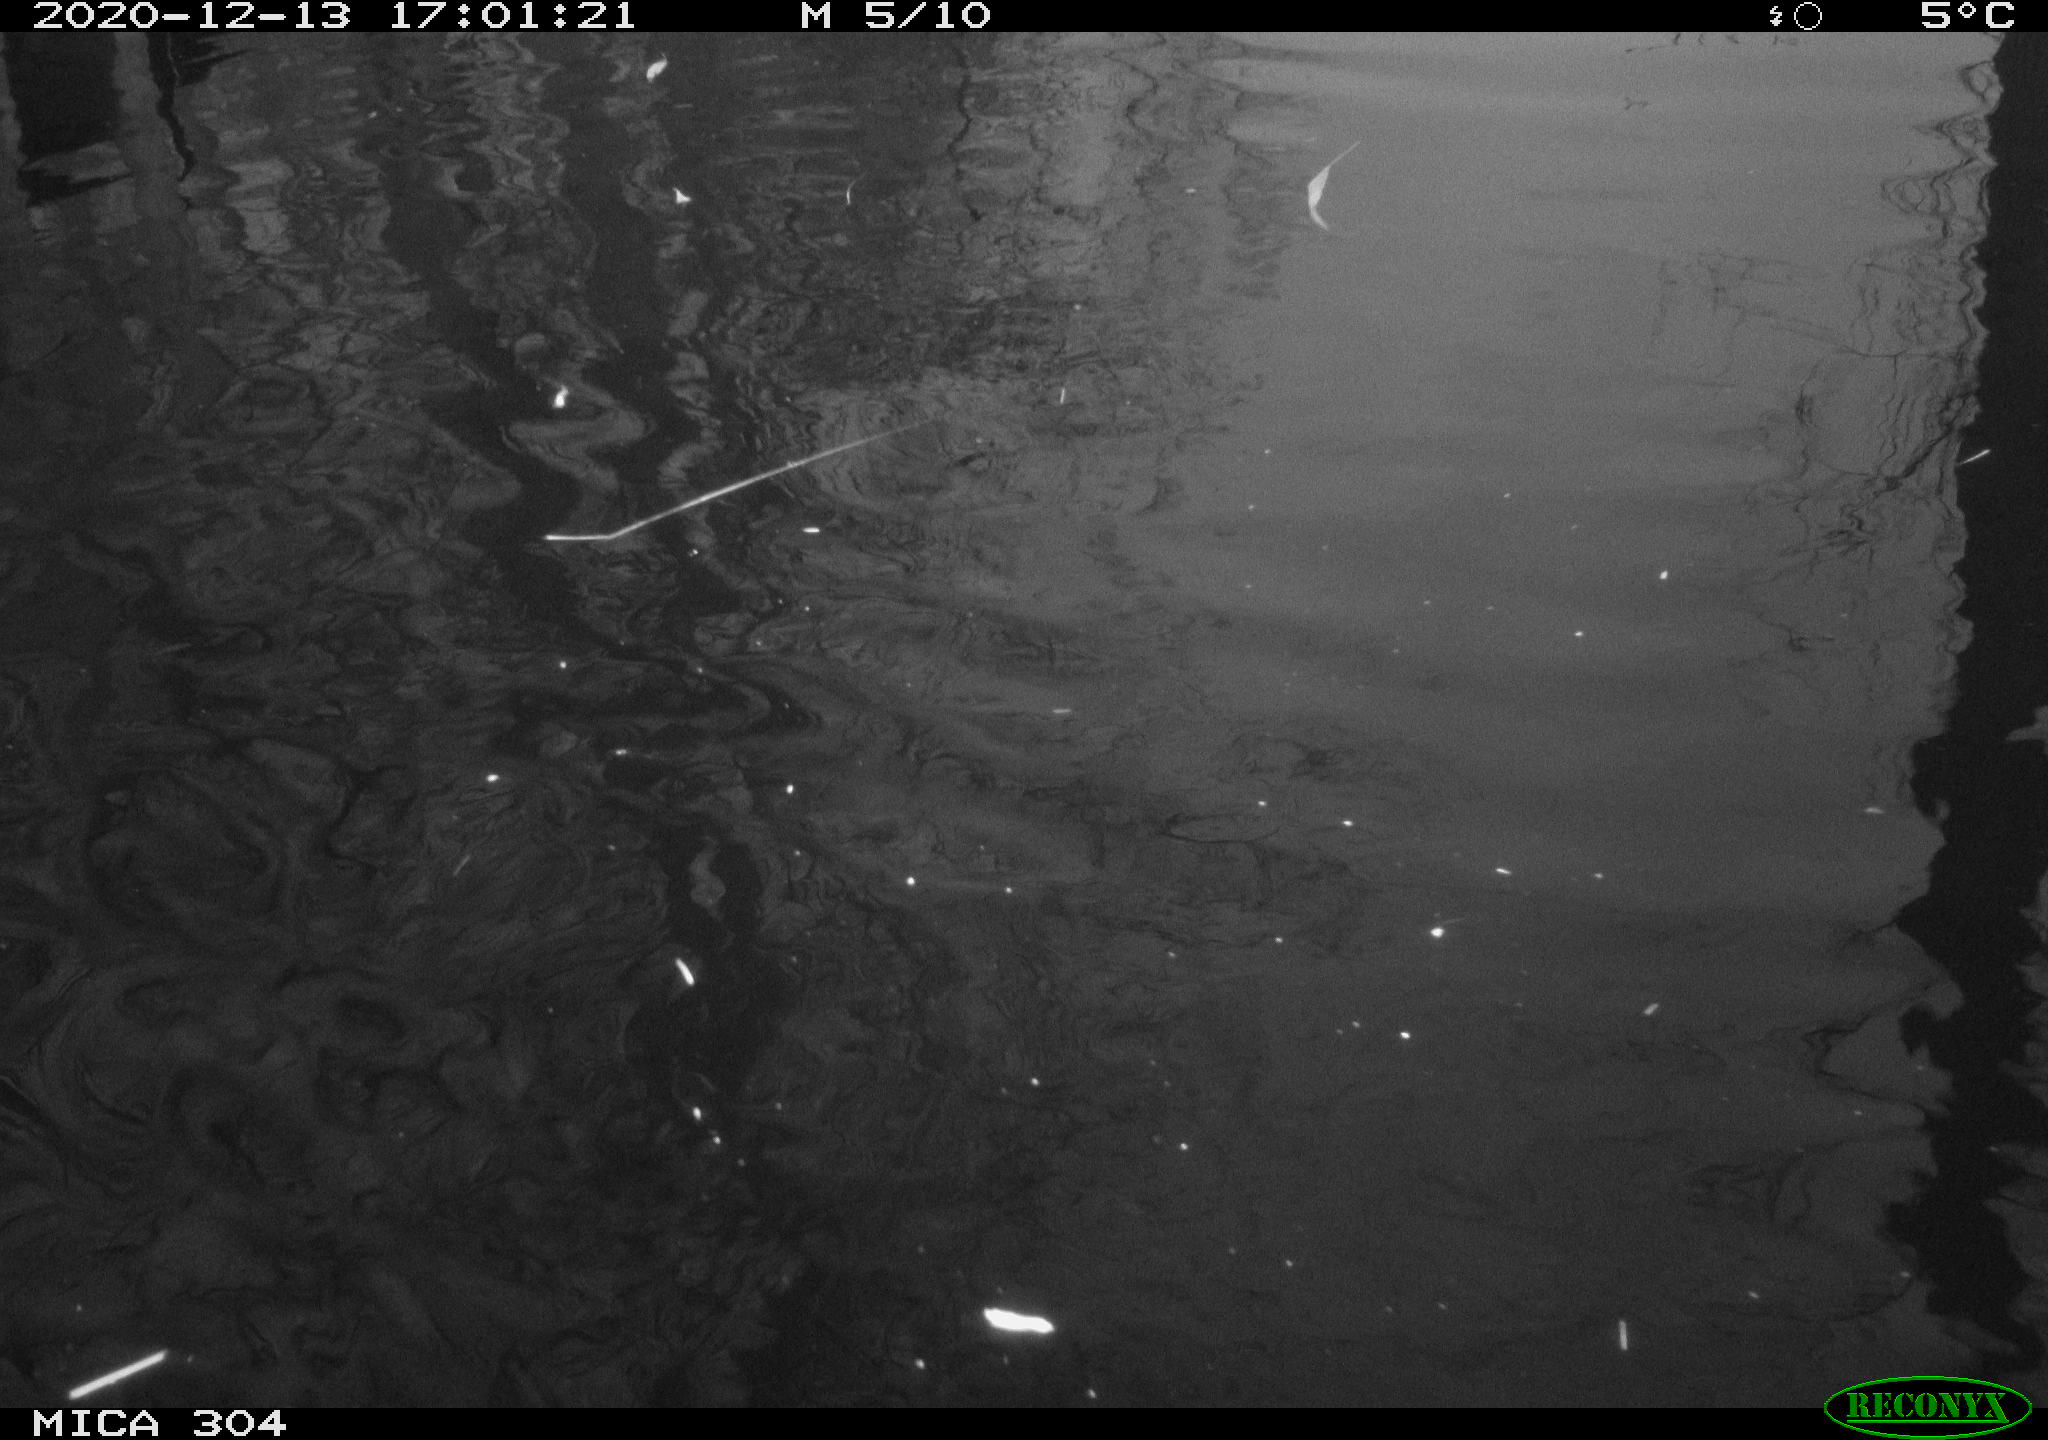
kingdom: Animalia
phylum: Chordata
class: Aves
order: Gruiformes
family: Rallidae
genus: Fulica
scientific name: Fulica atra
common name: Eurasian coot
